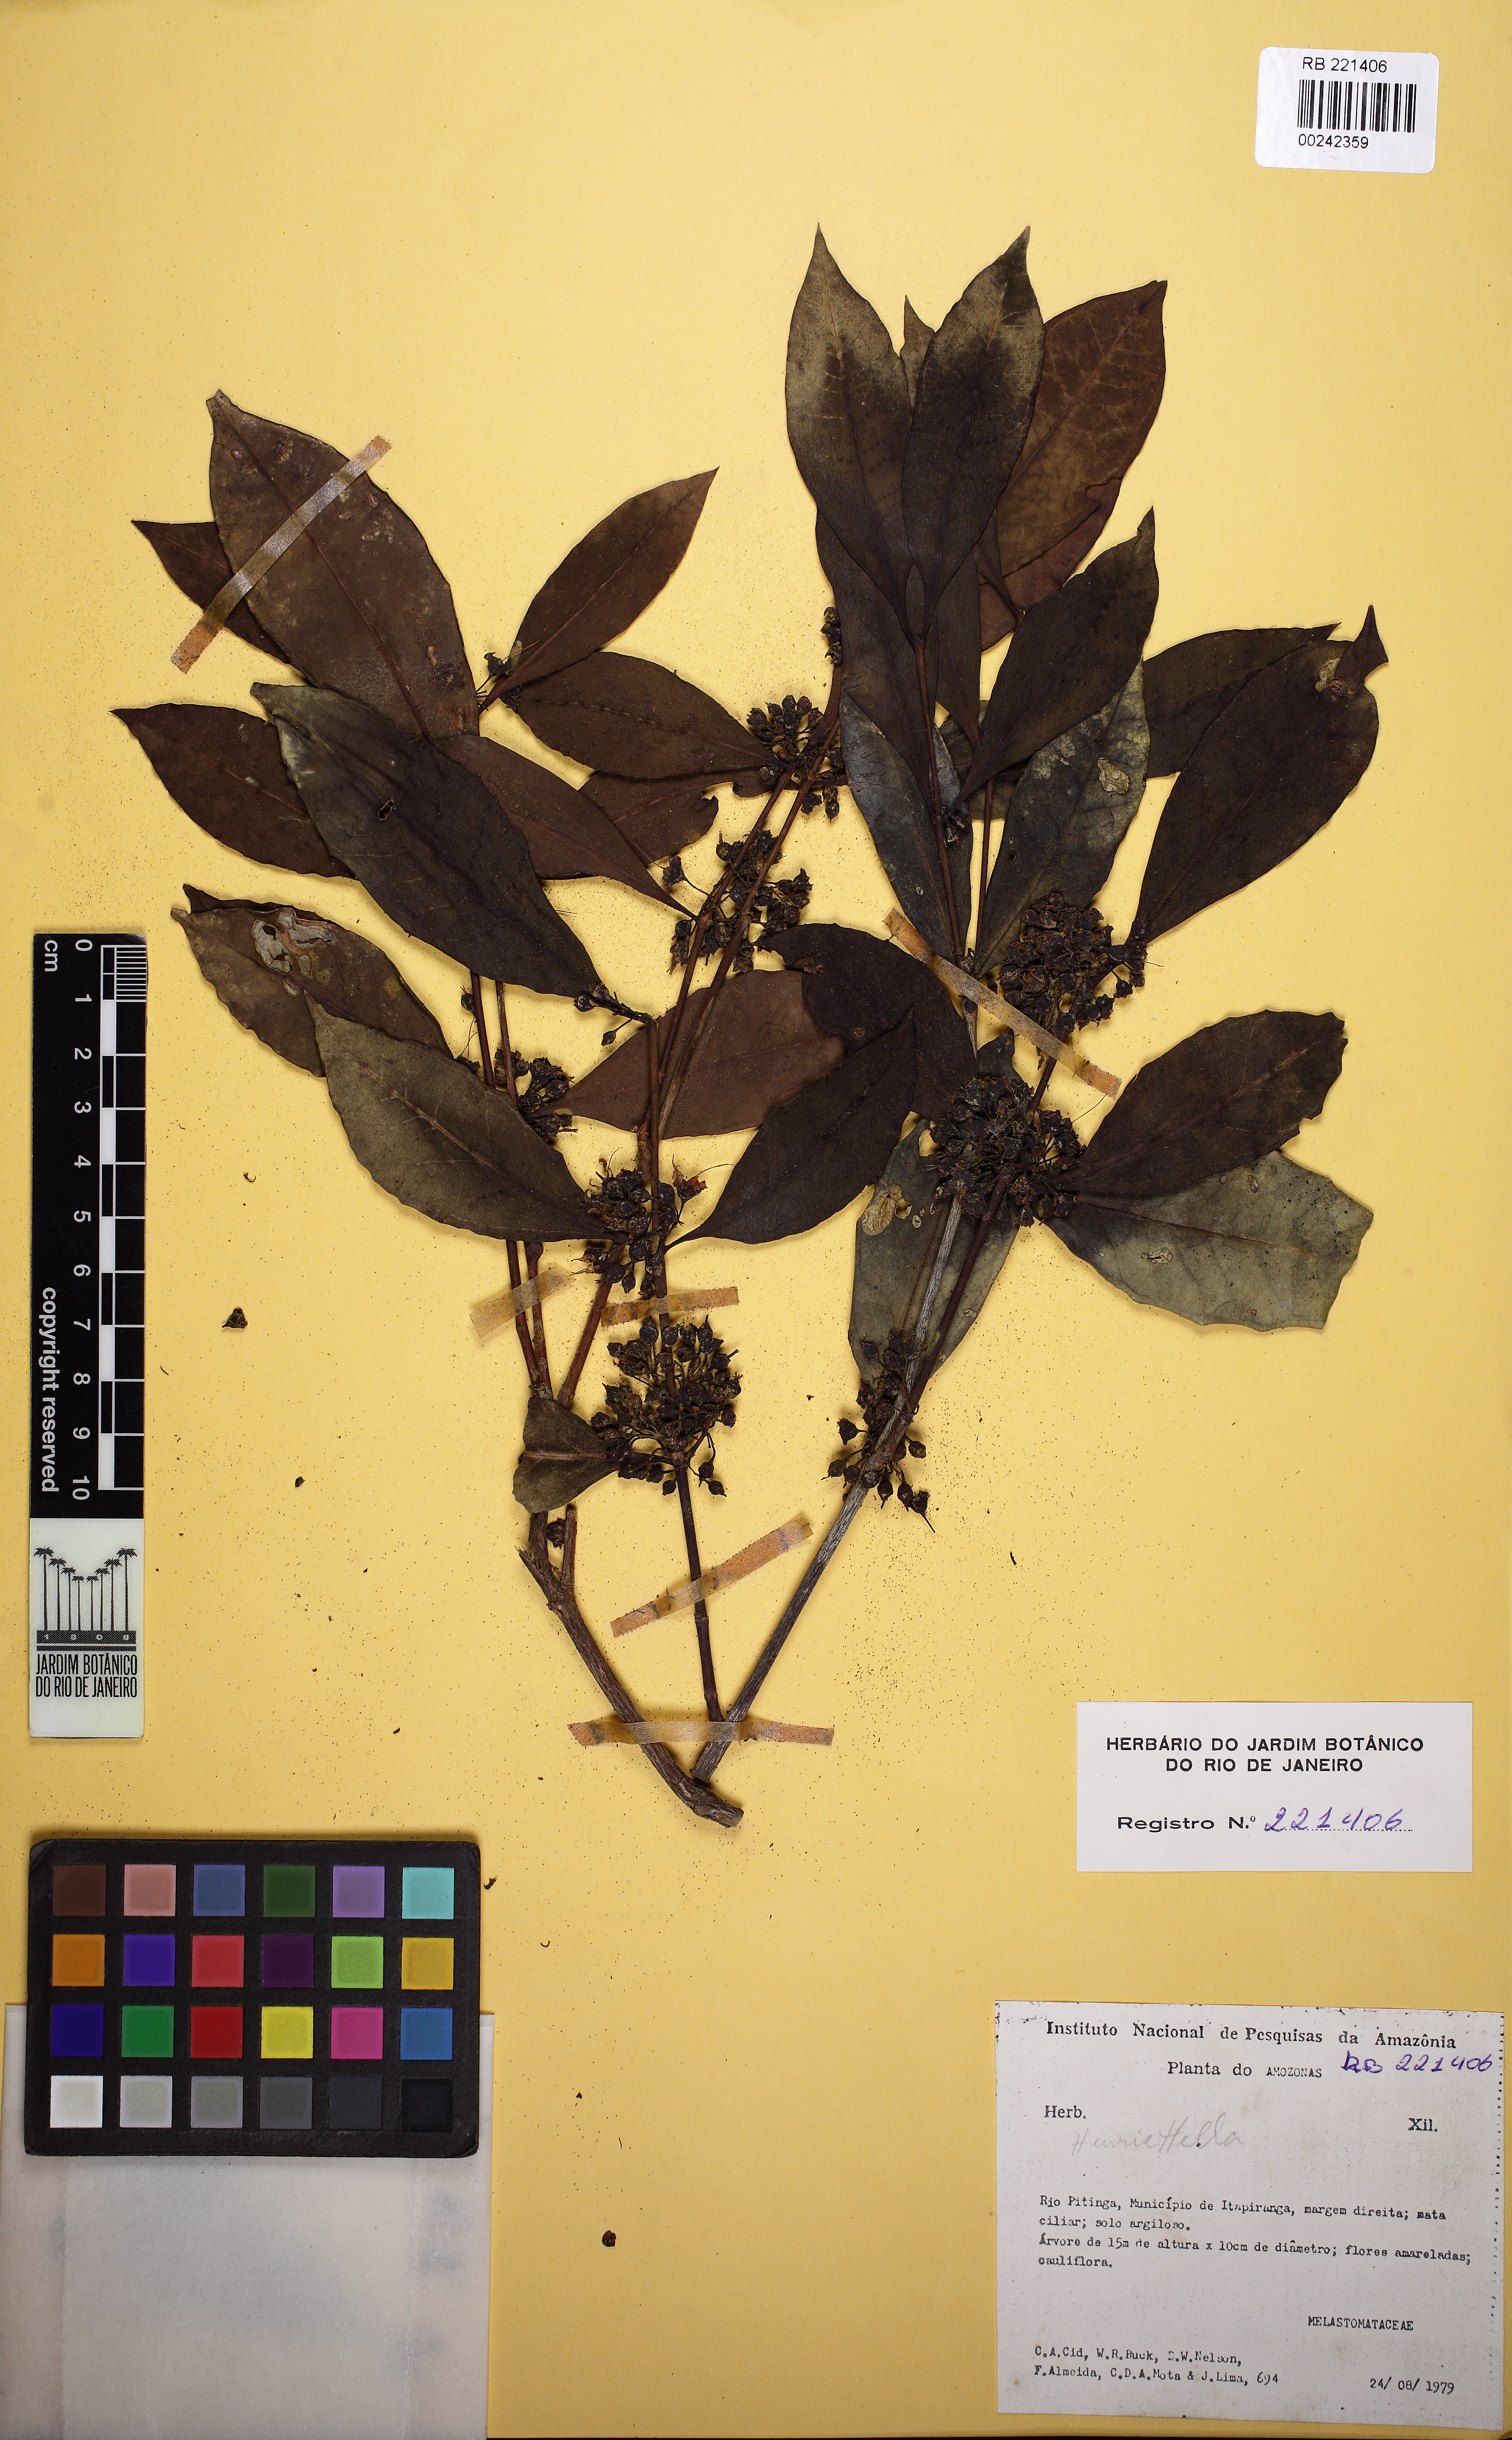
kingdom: Plantae
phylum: Tracheophyta
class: Magnoliopsida
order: Myrtales
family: Melastomataceae
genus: Mouriri
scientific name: Mouriri acutiflora
